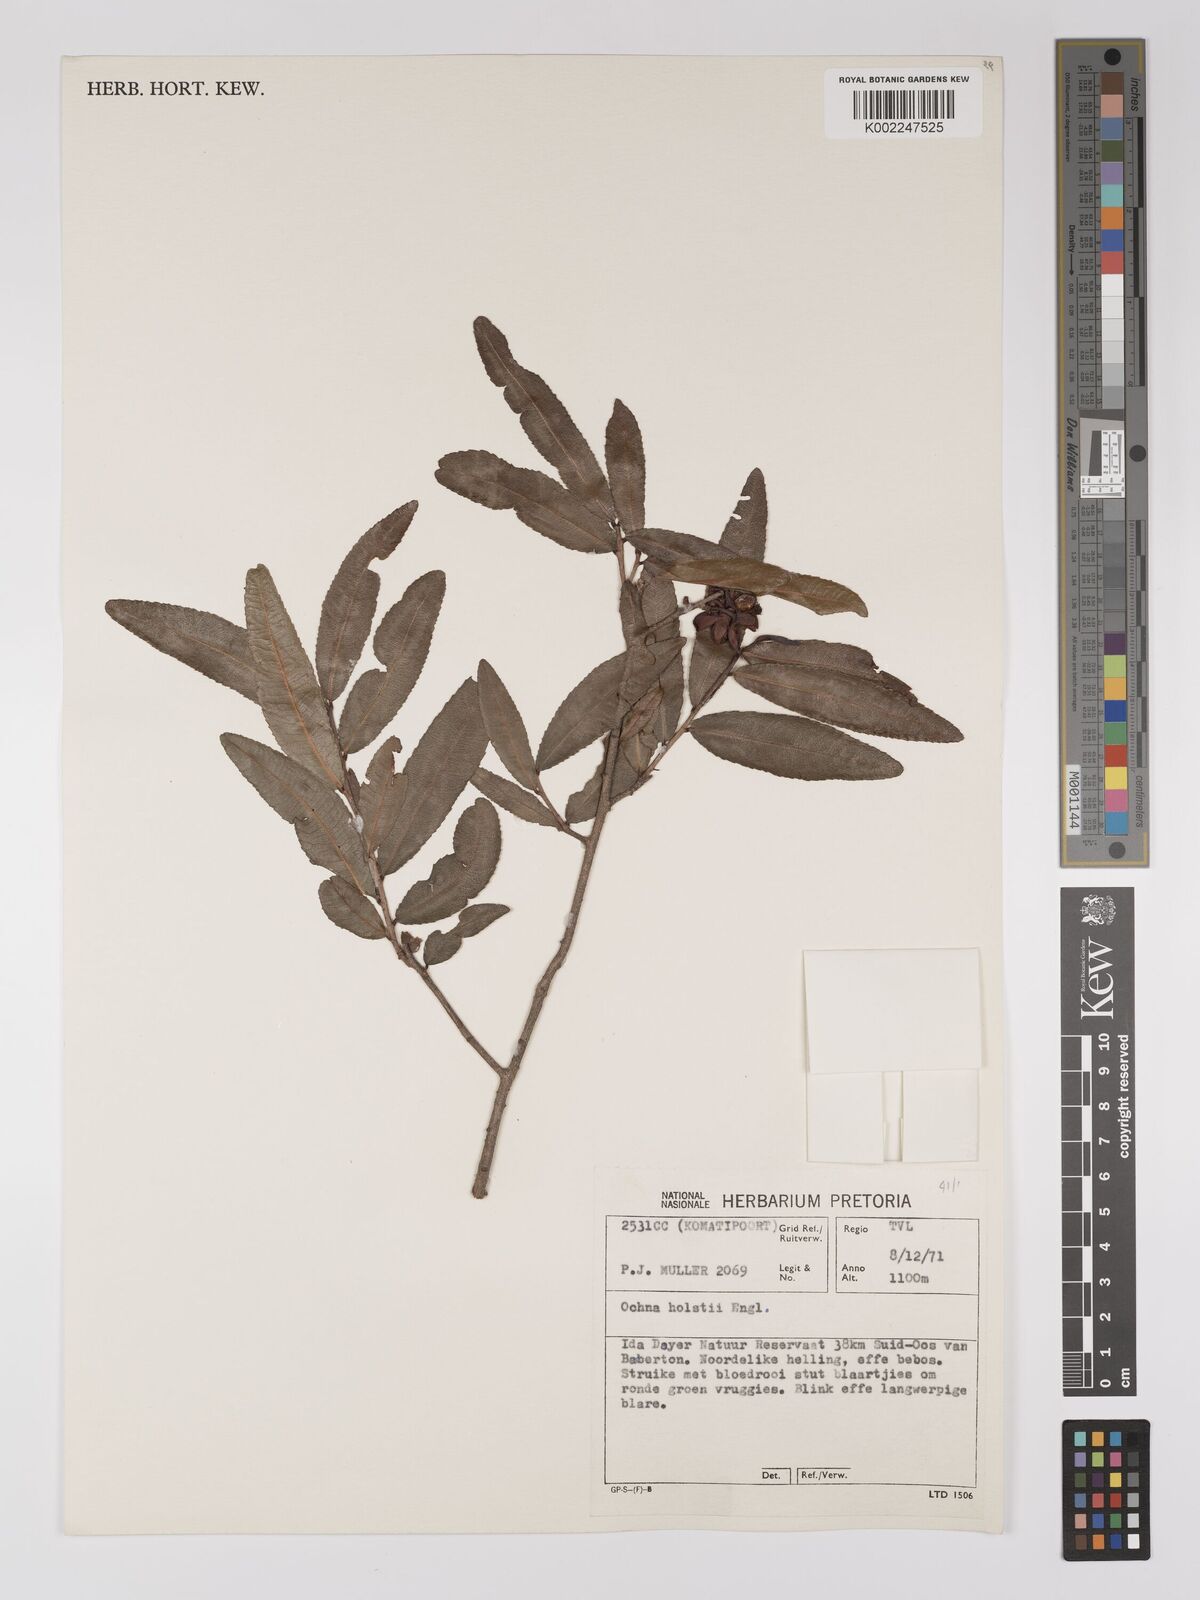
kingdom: Plantae
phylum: Tracheophyta
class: Magnoliopsida
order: Malpighiales
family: Ochnaceae
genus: Ochna
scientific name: Ochna
